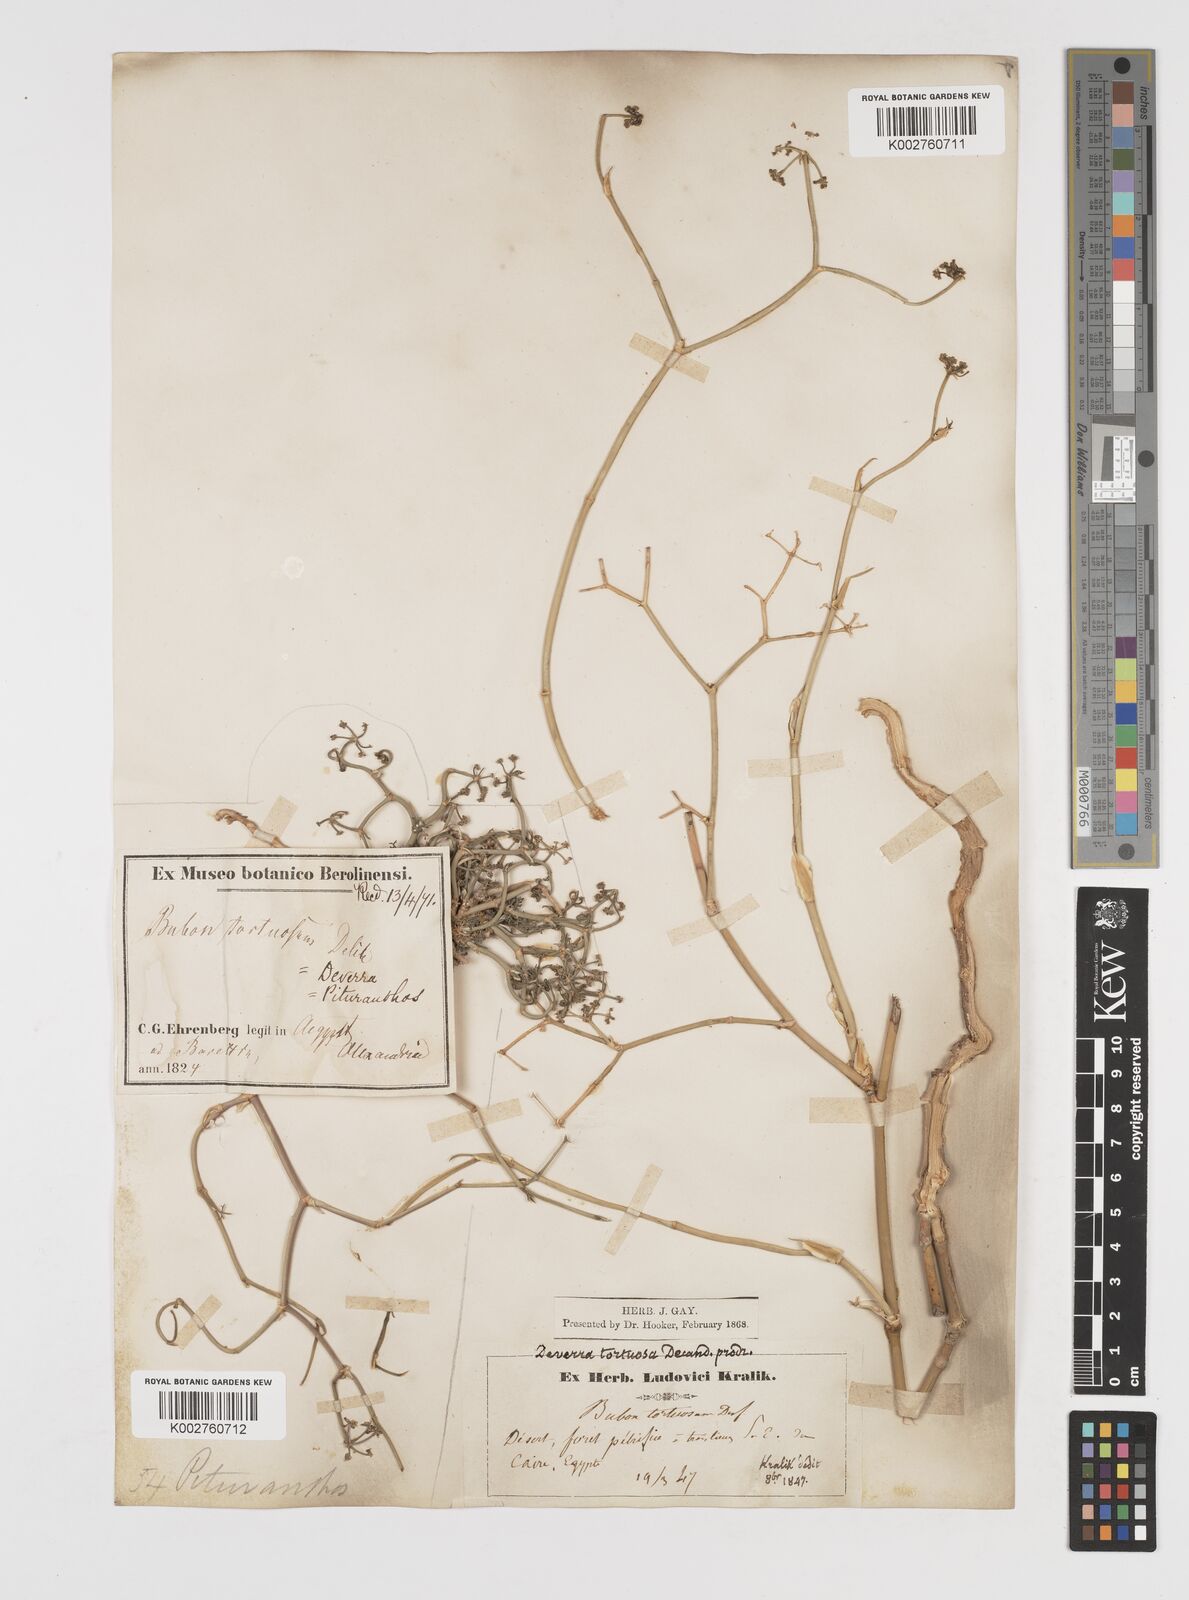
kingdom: Plantae
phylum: Tracheophyta
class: Magnoliopsida
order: Apiales
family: Apiaceae
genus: Deverra
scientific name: Deverra denudata
